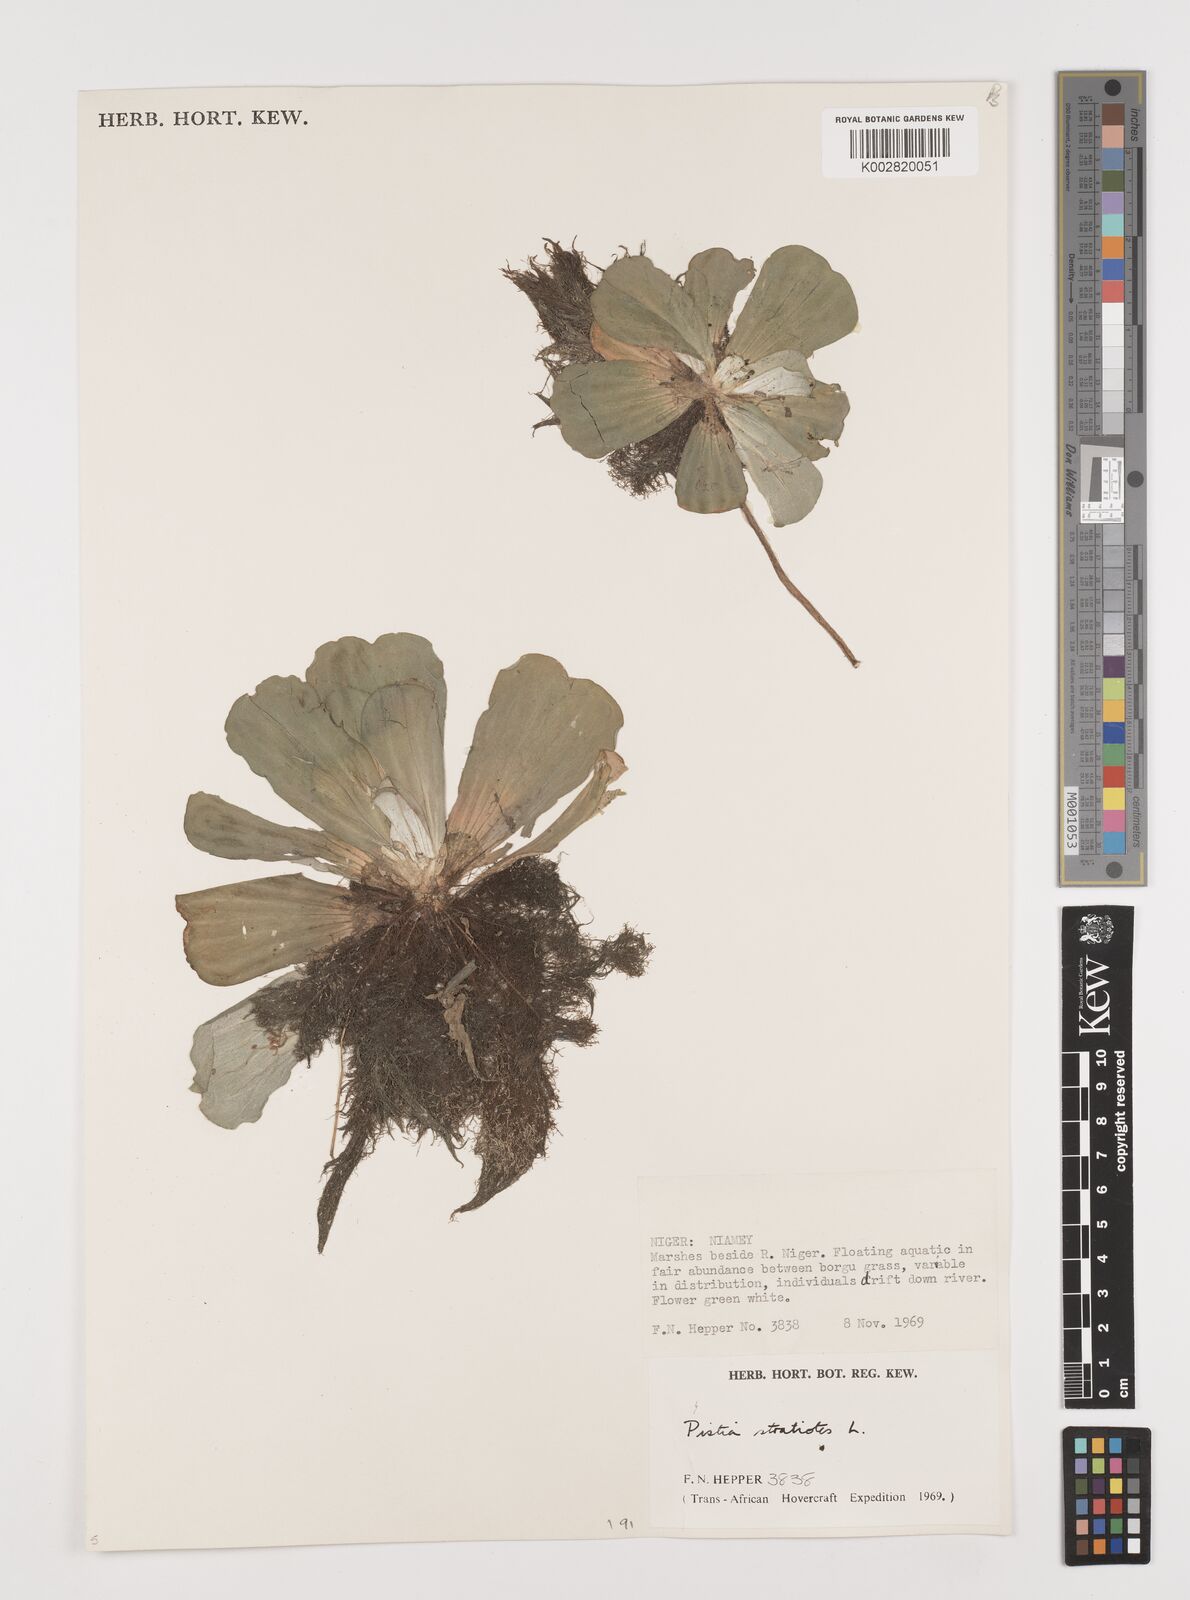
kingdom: Plantae
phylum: Tracheophyta
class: Liliopsida
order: Alismatales
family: Araceae
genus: Pistia
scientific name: Pistia stratiotes
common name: Water lettuce
